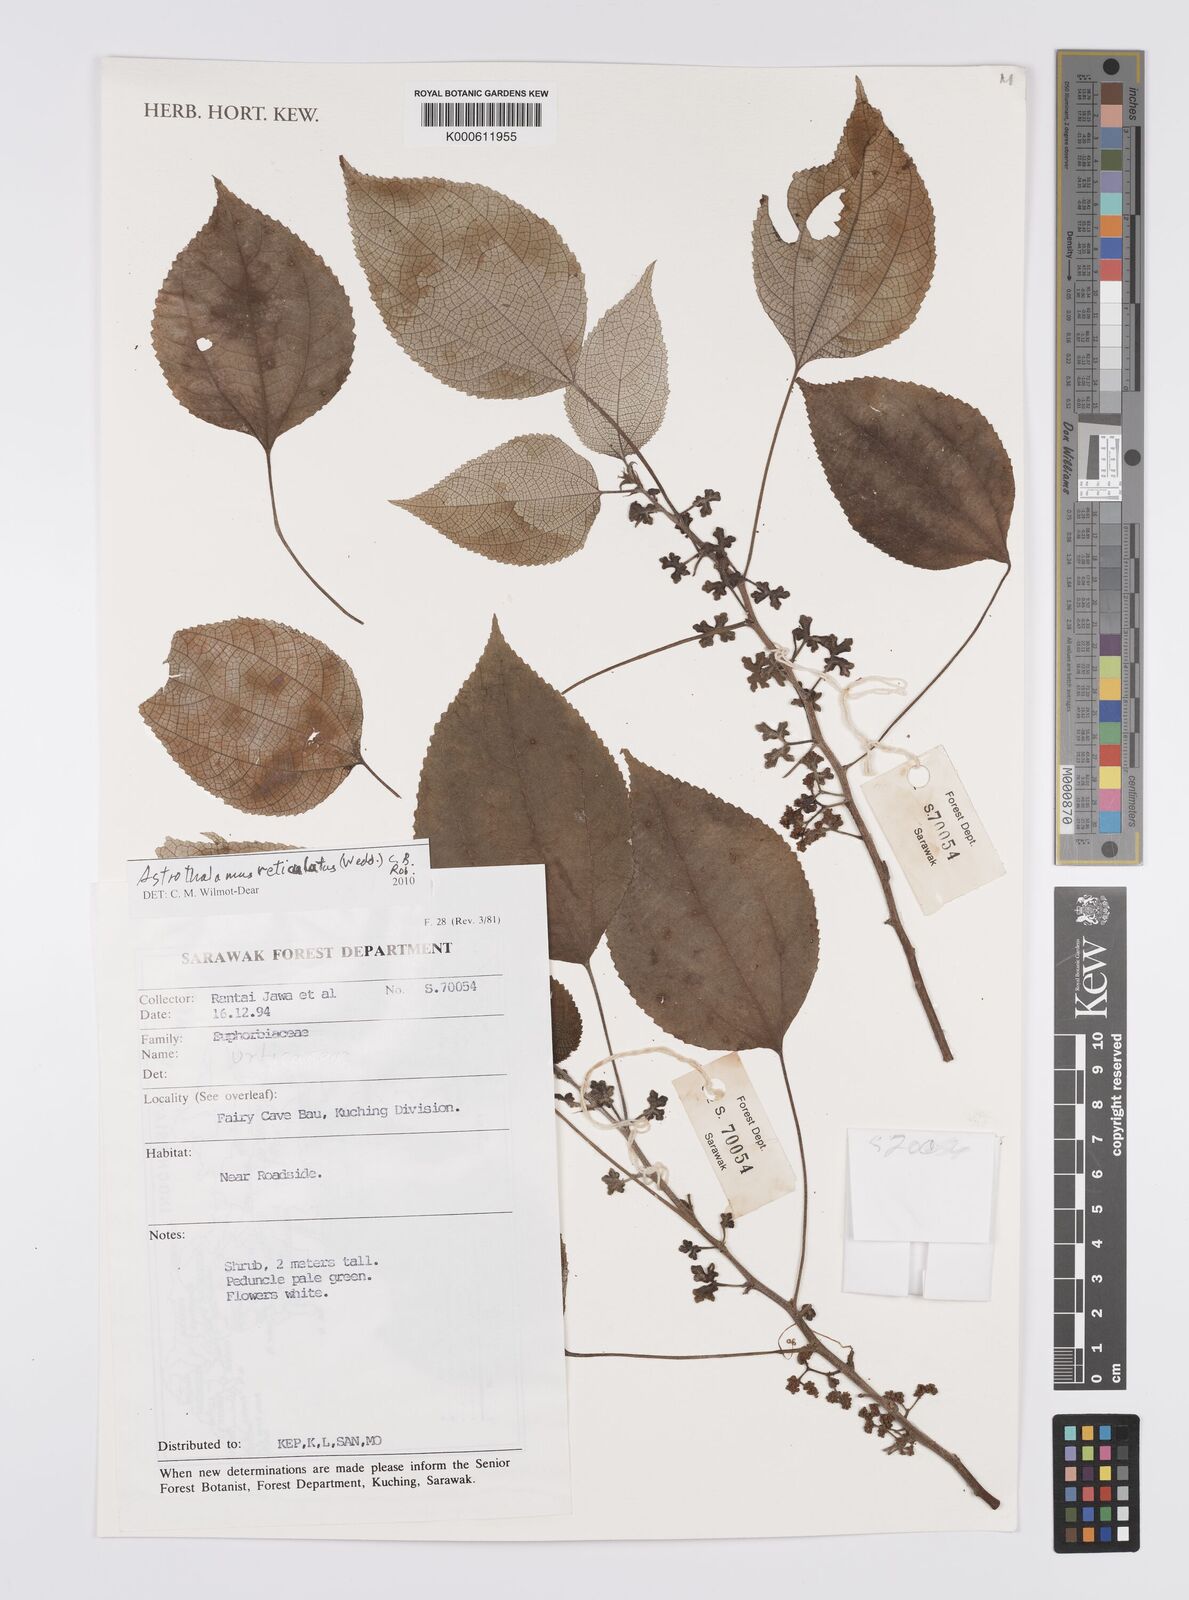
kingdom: Plantae
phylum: Tracheophyta
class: Magnoliopsida
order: Rosales
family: Urticaceae
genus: Astrothalamus
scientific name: Astrothalamus reticulatus
